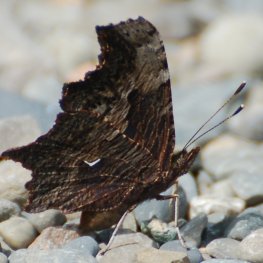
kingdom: Animalia
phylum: Arthropoda
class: Insecta
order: Lepidoptera
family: Nymphalidae
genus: Polygonia
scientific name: Polygonia progne
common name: Gray Comma
